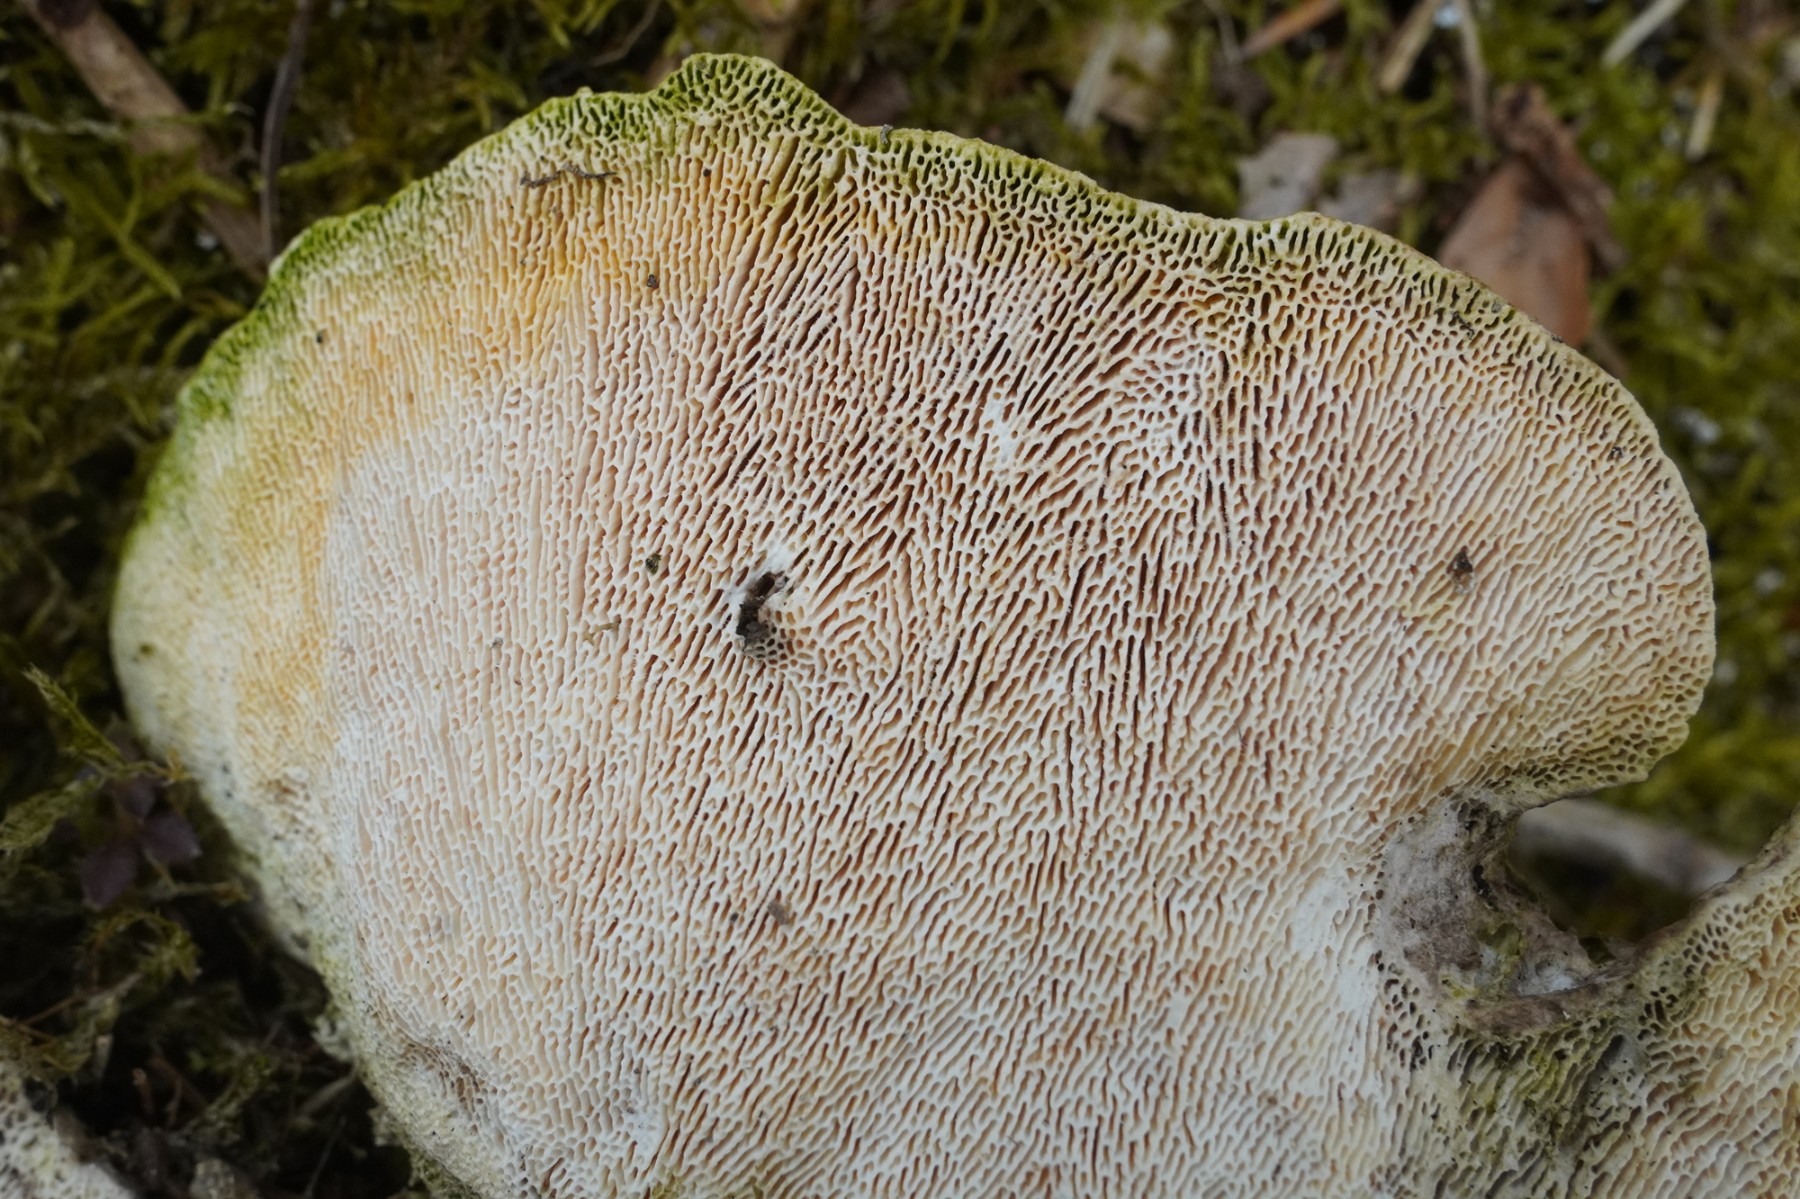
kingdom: Fungi
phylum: Basidiomycota
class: Agaricomycetes
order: Polyporales
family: Polyporaceae
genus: Trametes
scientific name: Trametes gibbosa
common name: puklet læderporesvamp
